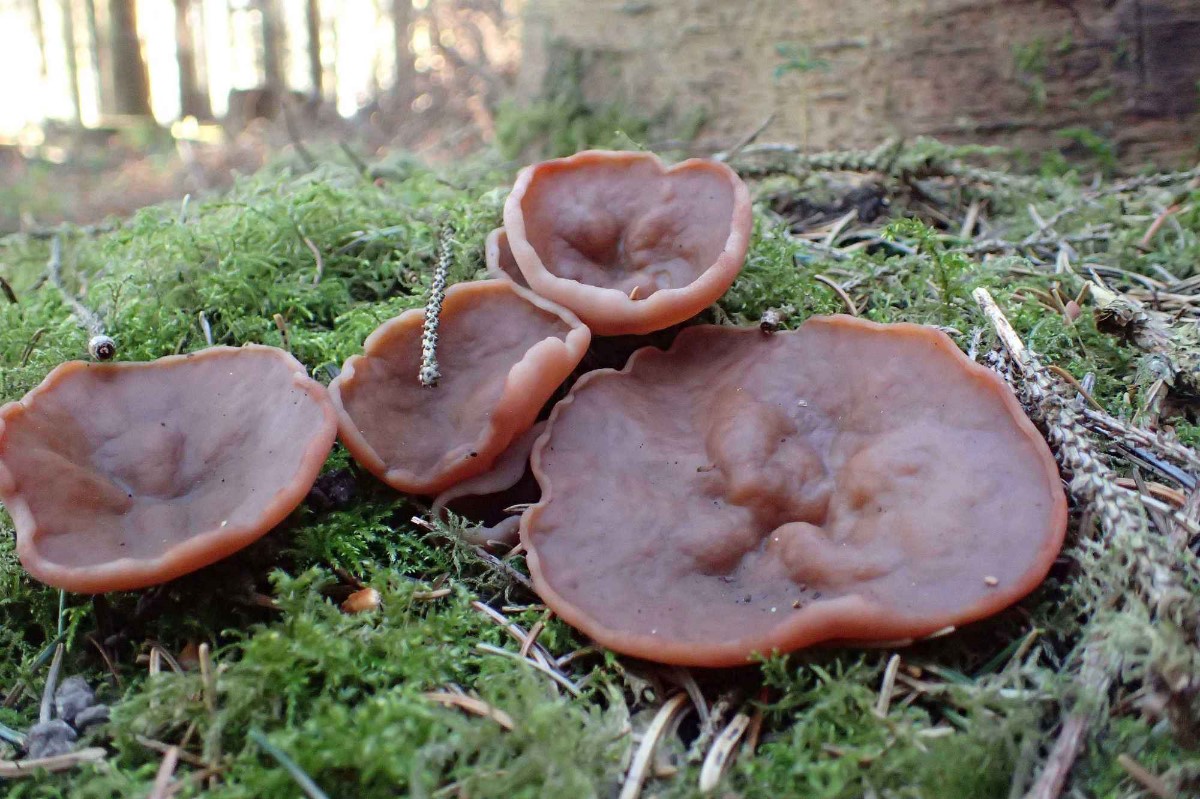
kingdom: Fungi
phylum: Ascomycota
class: Pezizomycetes
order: Pezizales
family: Discinaceae
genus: Discina
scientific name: Discina ancilis
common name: udbredt stenmorkel
